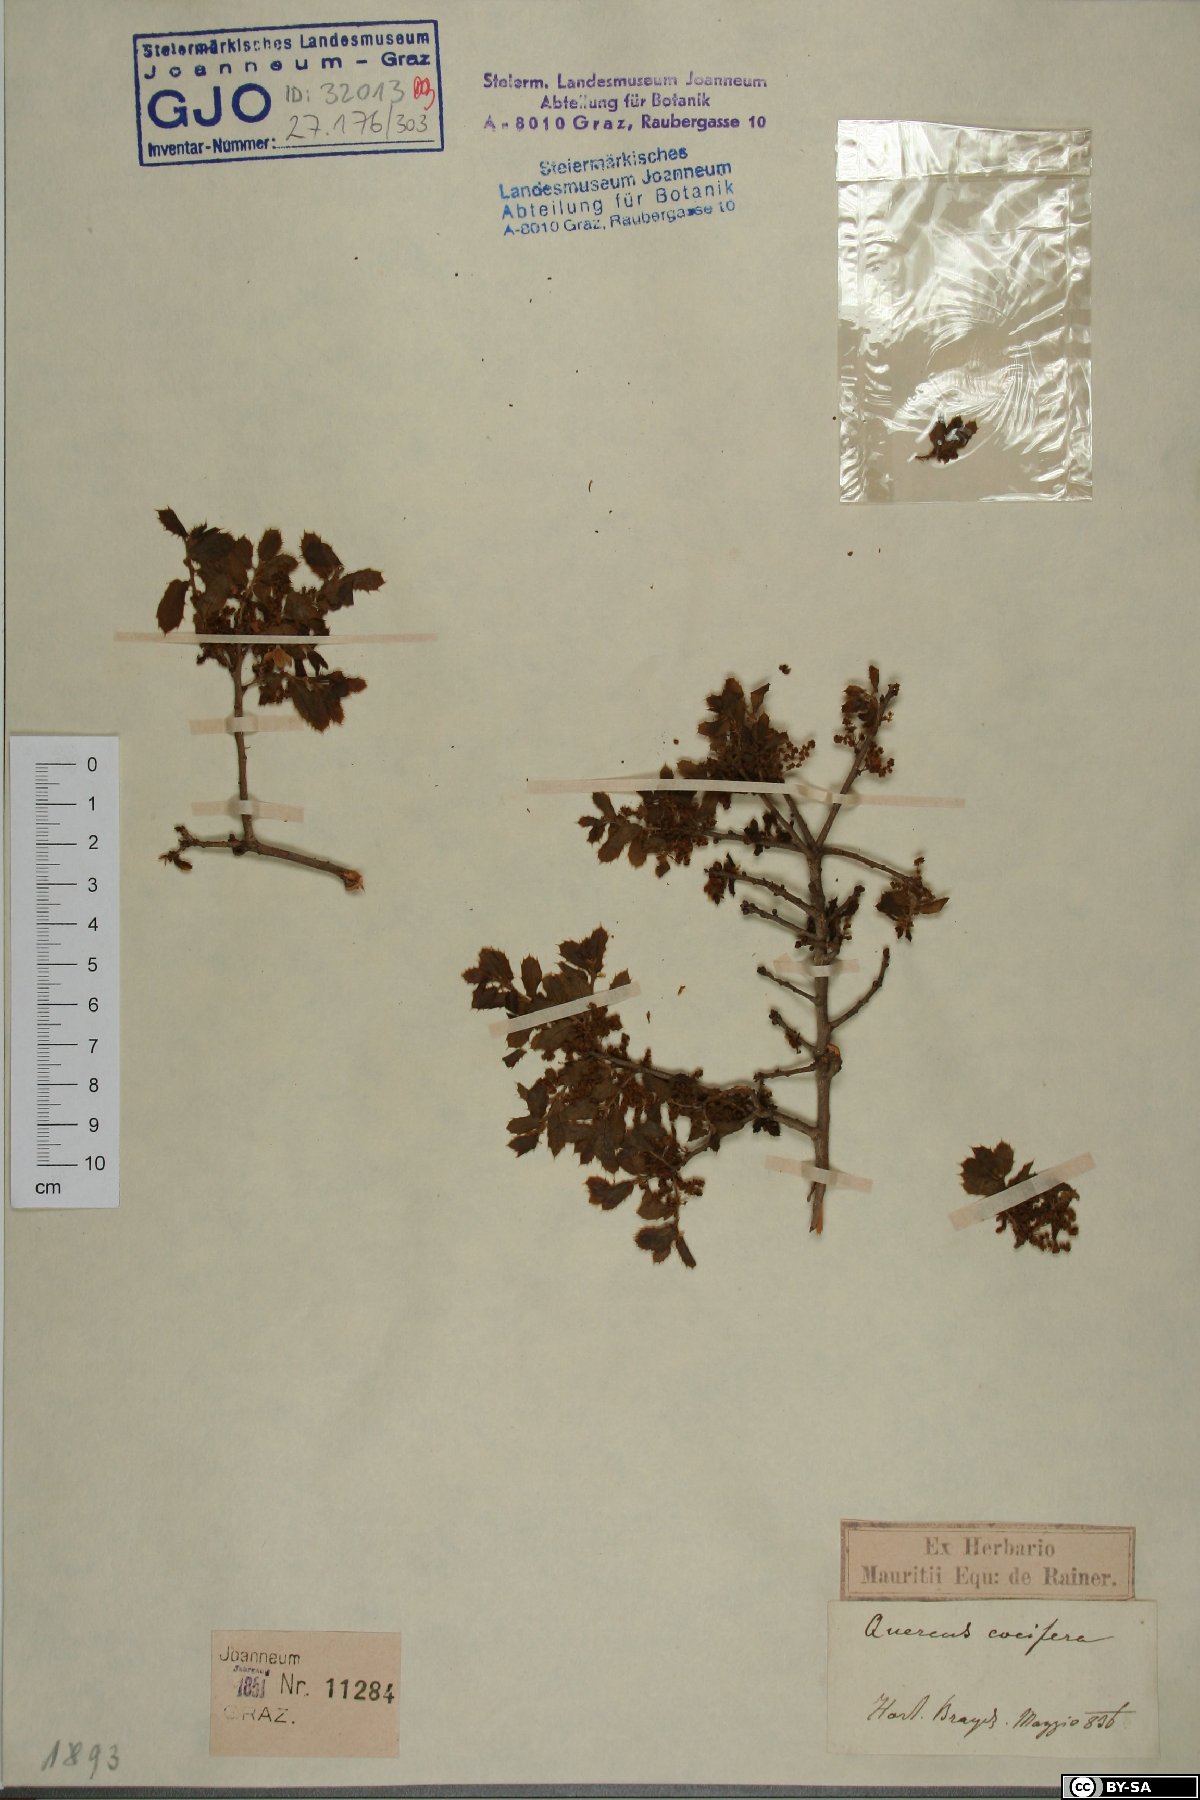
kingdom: Plantae
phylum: Tracheophyta
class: Magnoliopsida
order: Fagales
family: Fagaceae
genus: Quercus
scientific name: Quercus coccifera
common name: Kermes oak
